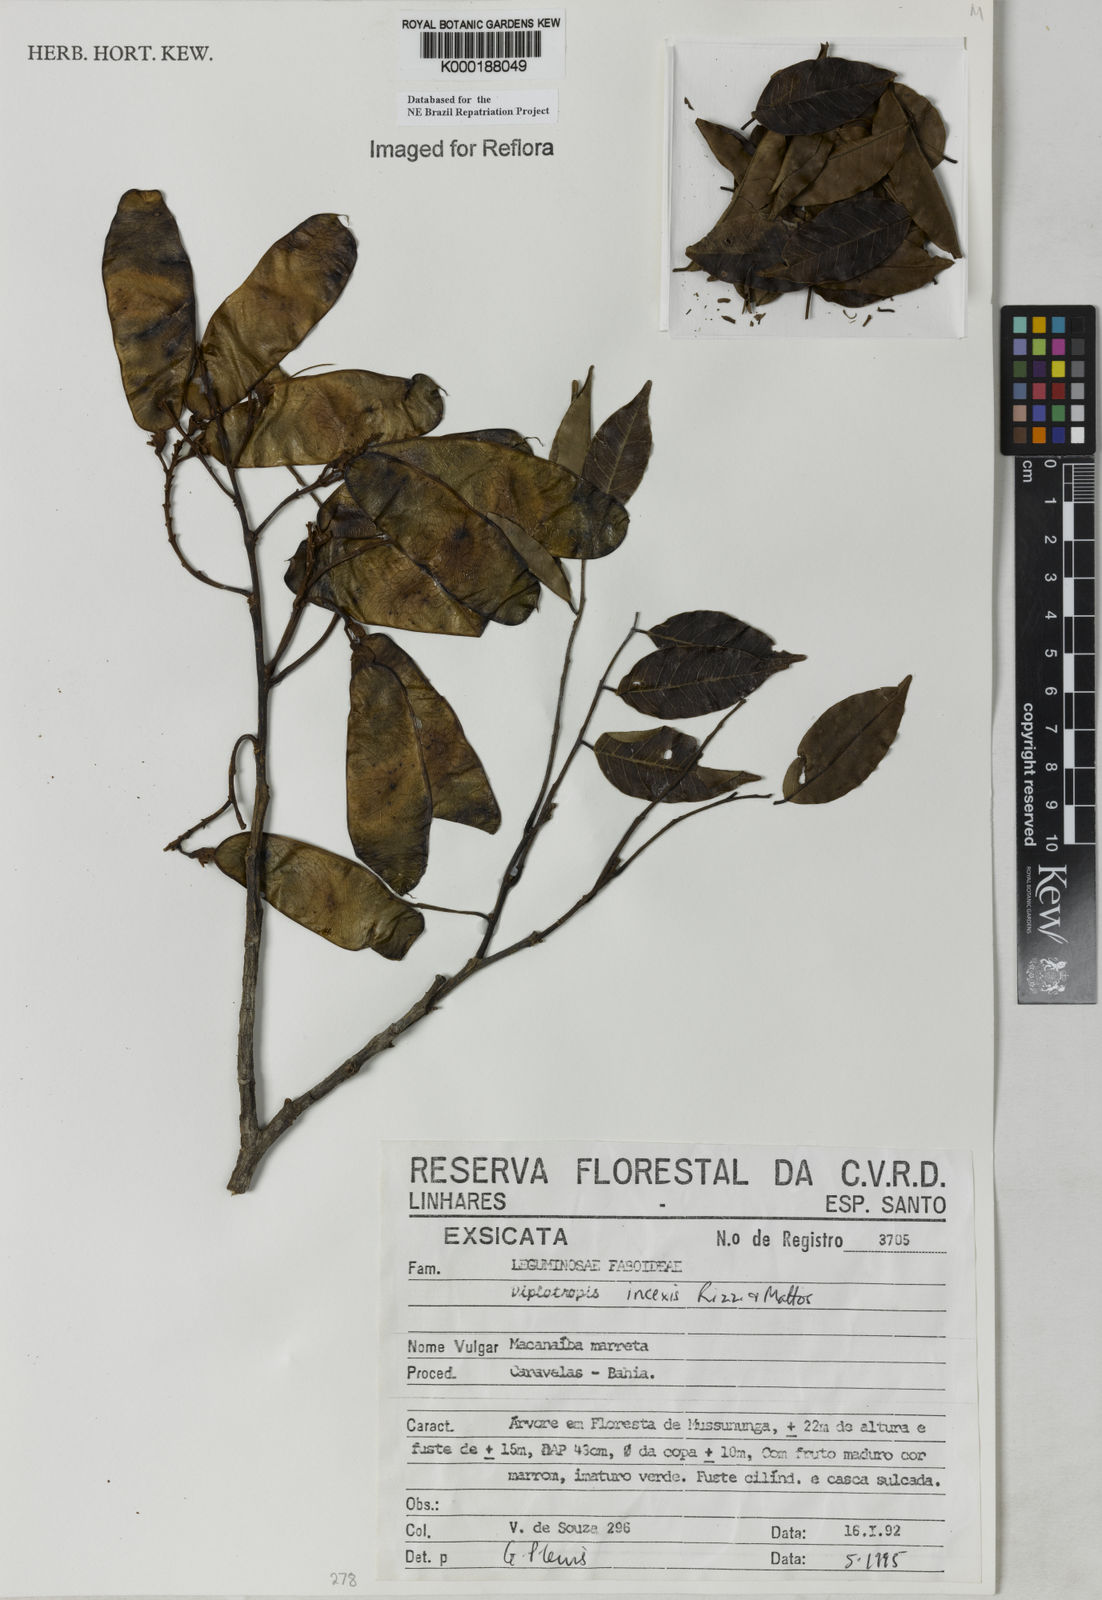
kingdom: Plantae
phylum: Tracheophyta
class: Magnoliopsida
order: Fabales
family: Fabaceae
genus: Diplotropis
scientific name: Diplotropis incexis
